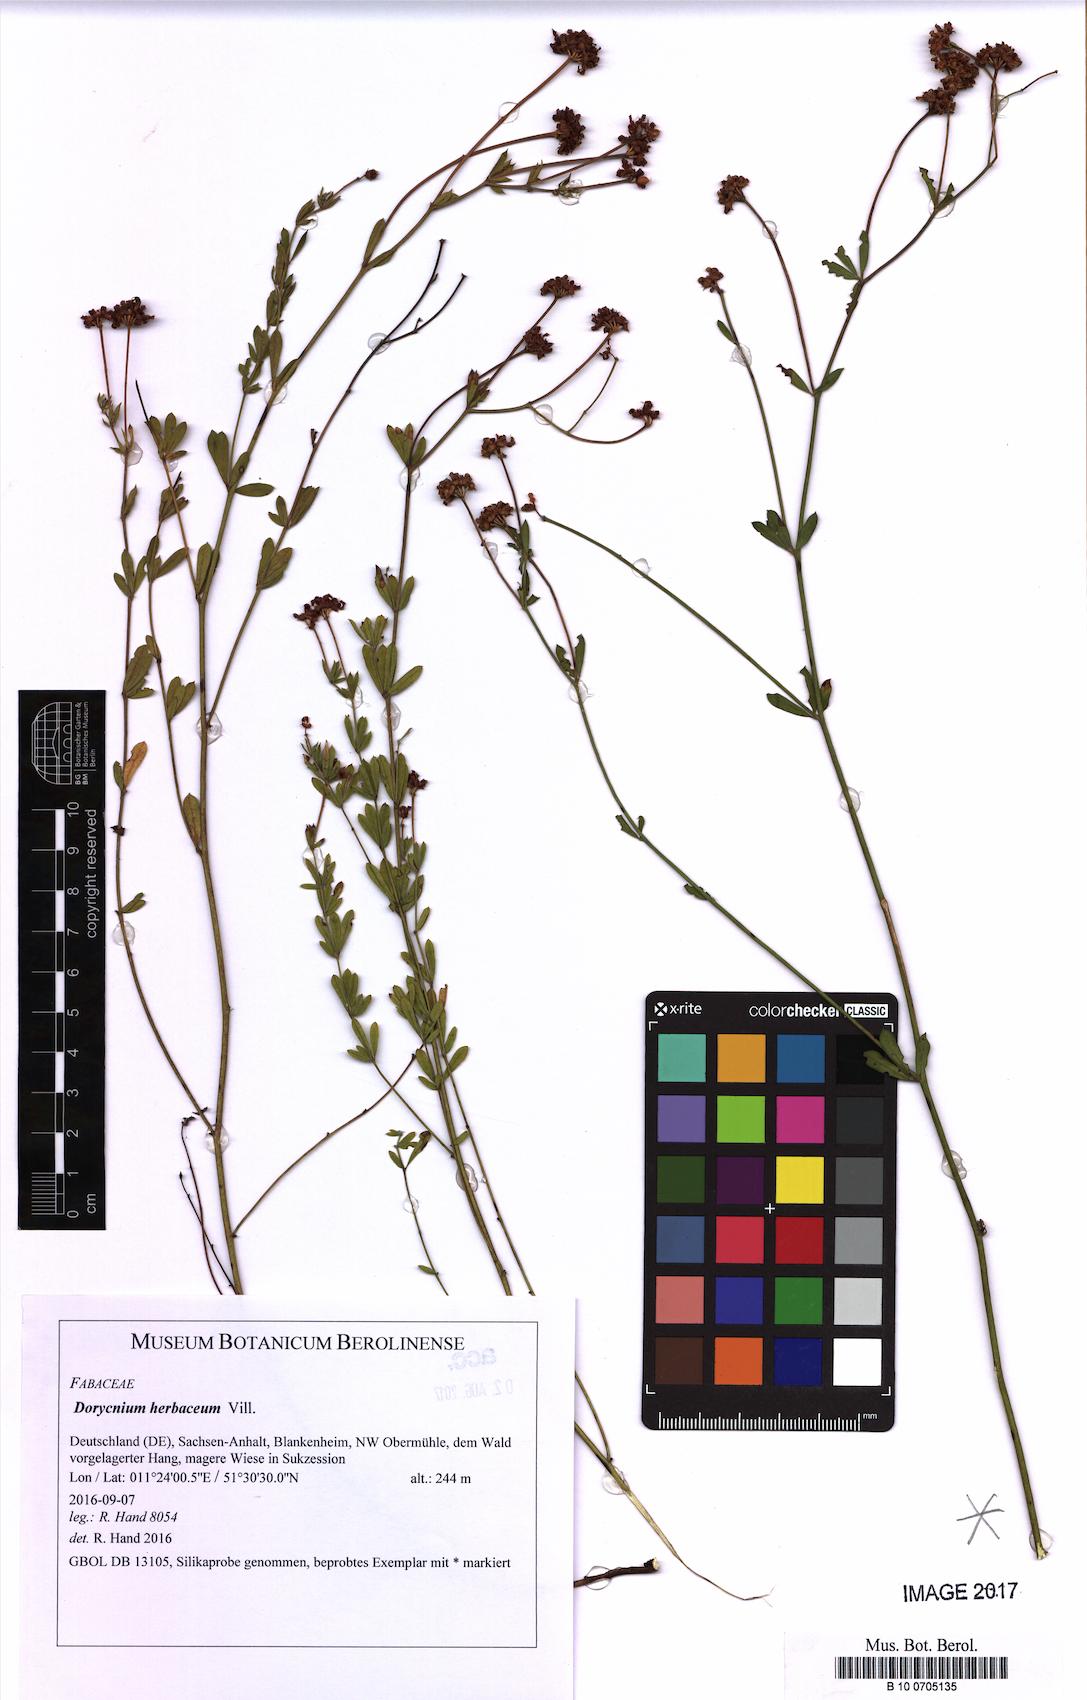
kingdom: Plantae
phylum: Tracheophyta
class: Magnoliopsida
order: Fabales
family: Fabaceae
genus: Lotus
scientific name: Lotus herbaceus
